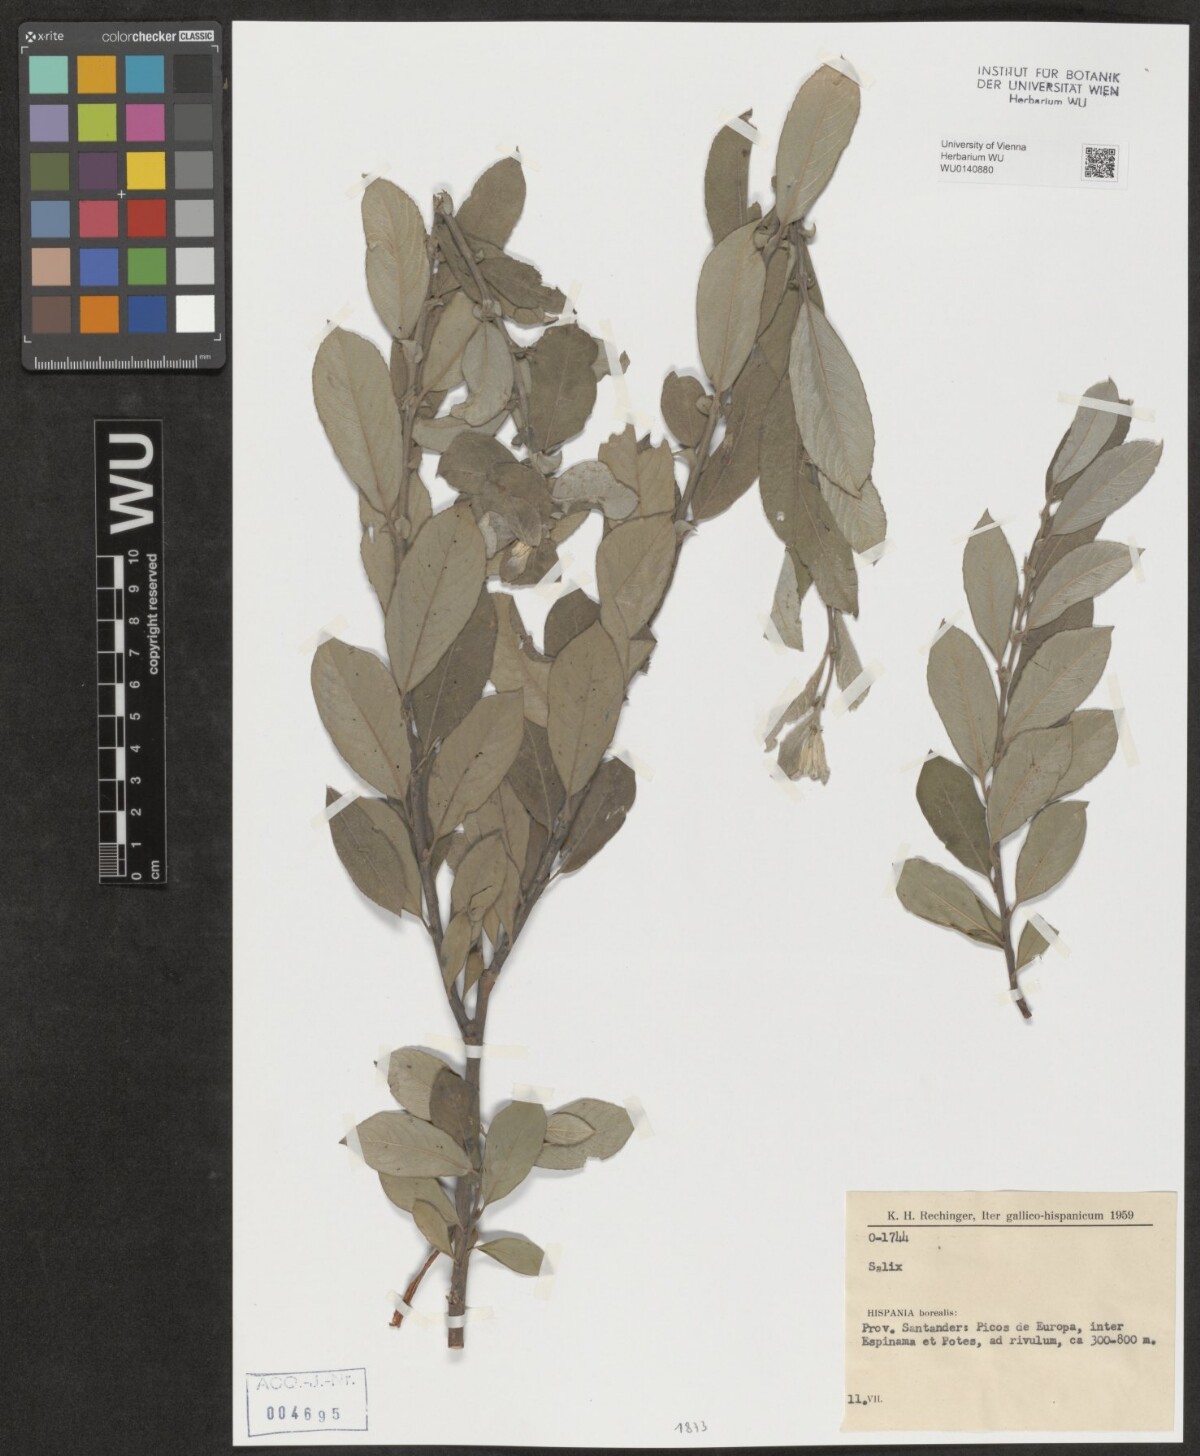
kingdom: Plantae
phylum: Tracheophyta
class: Magnoliopsida
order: Malpighiales
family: Salicaceae
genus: Salix
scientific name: Salix
